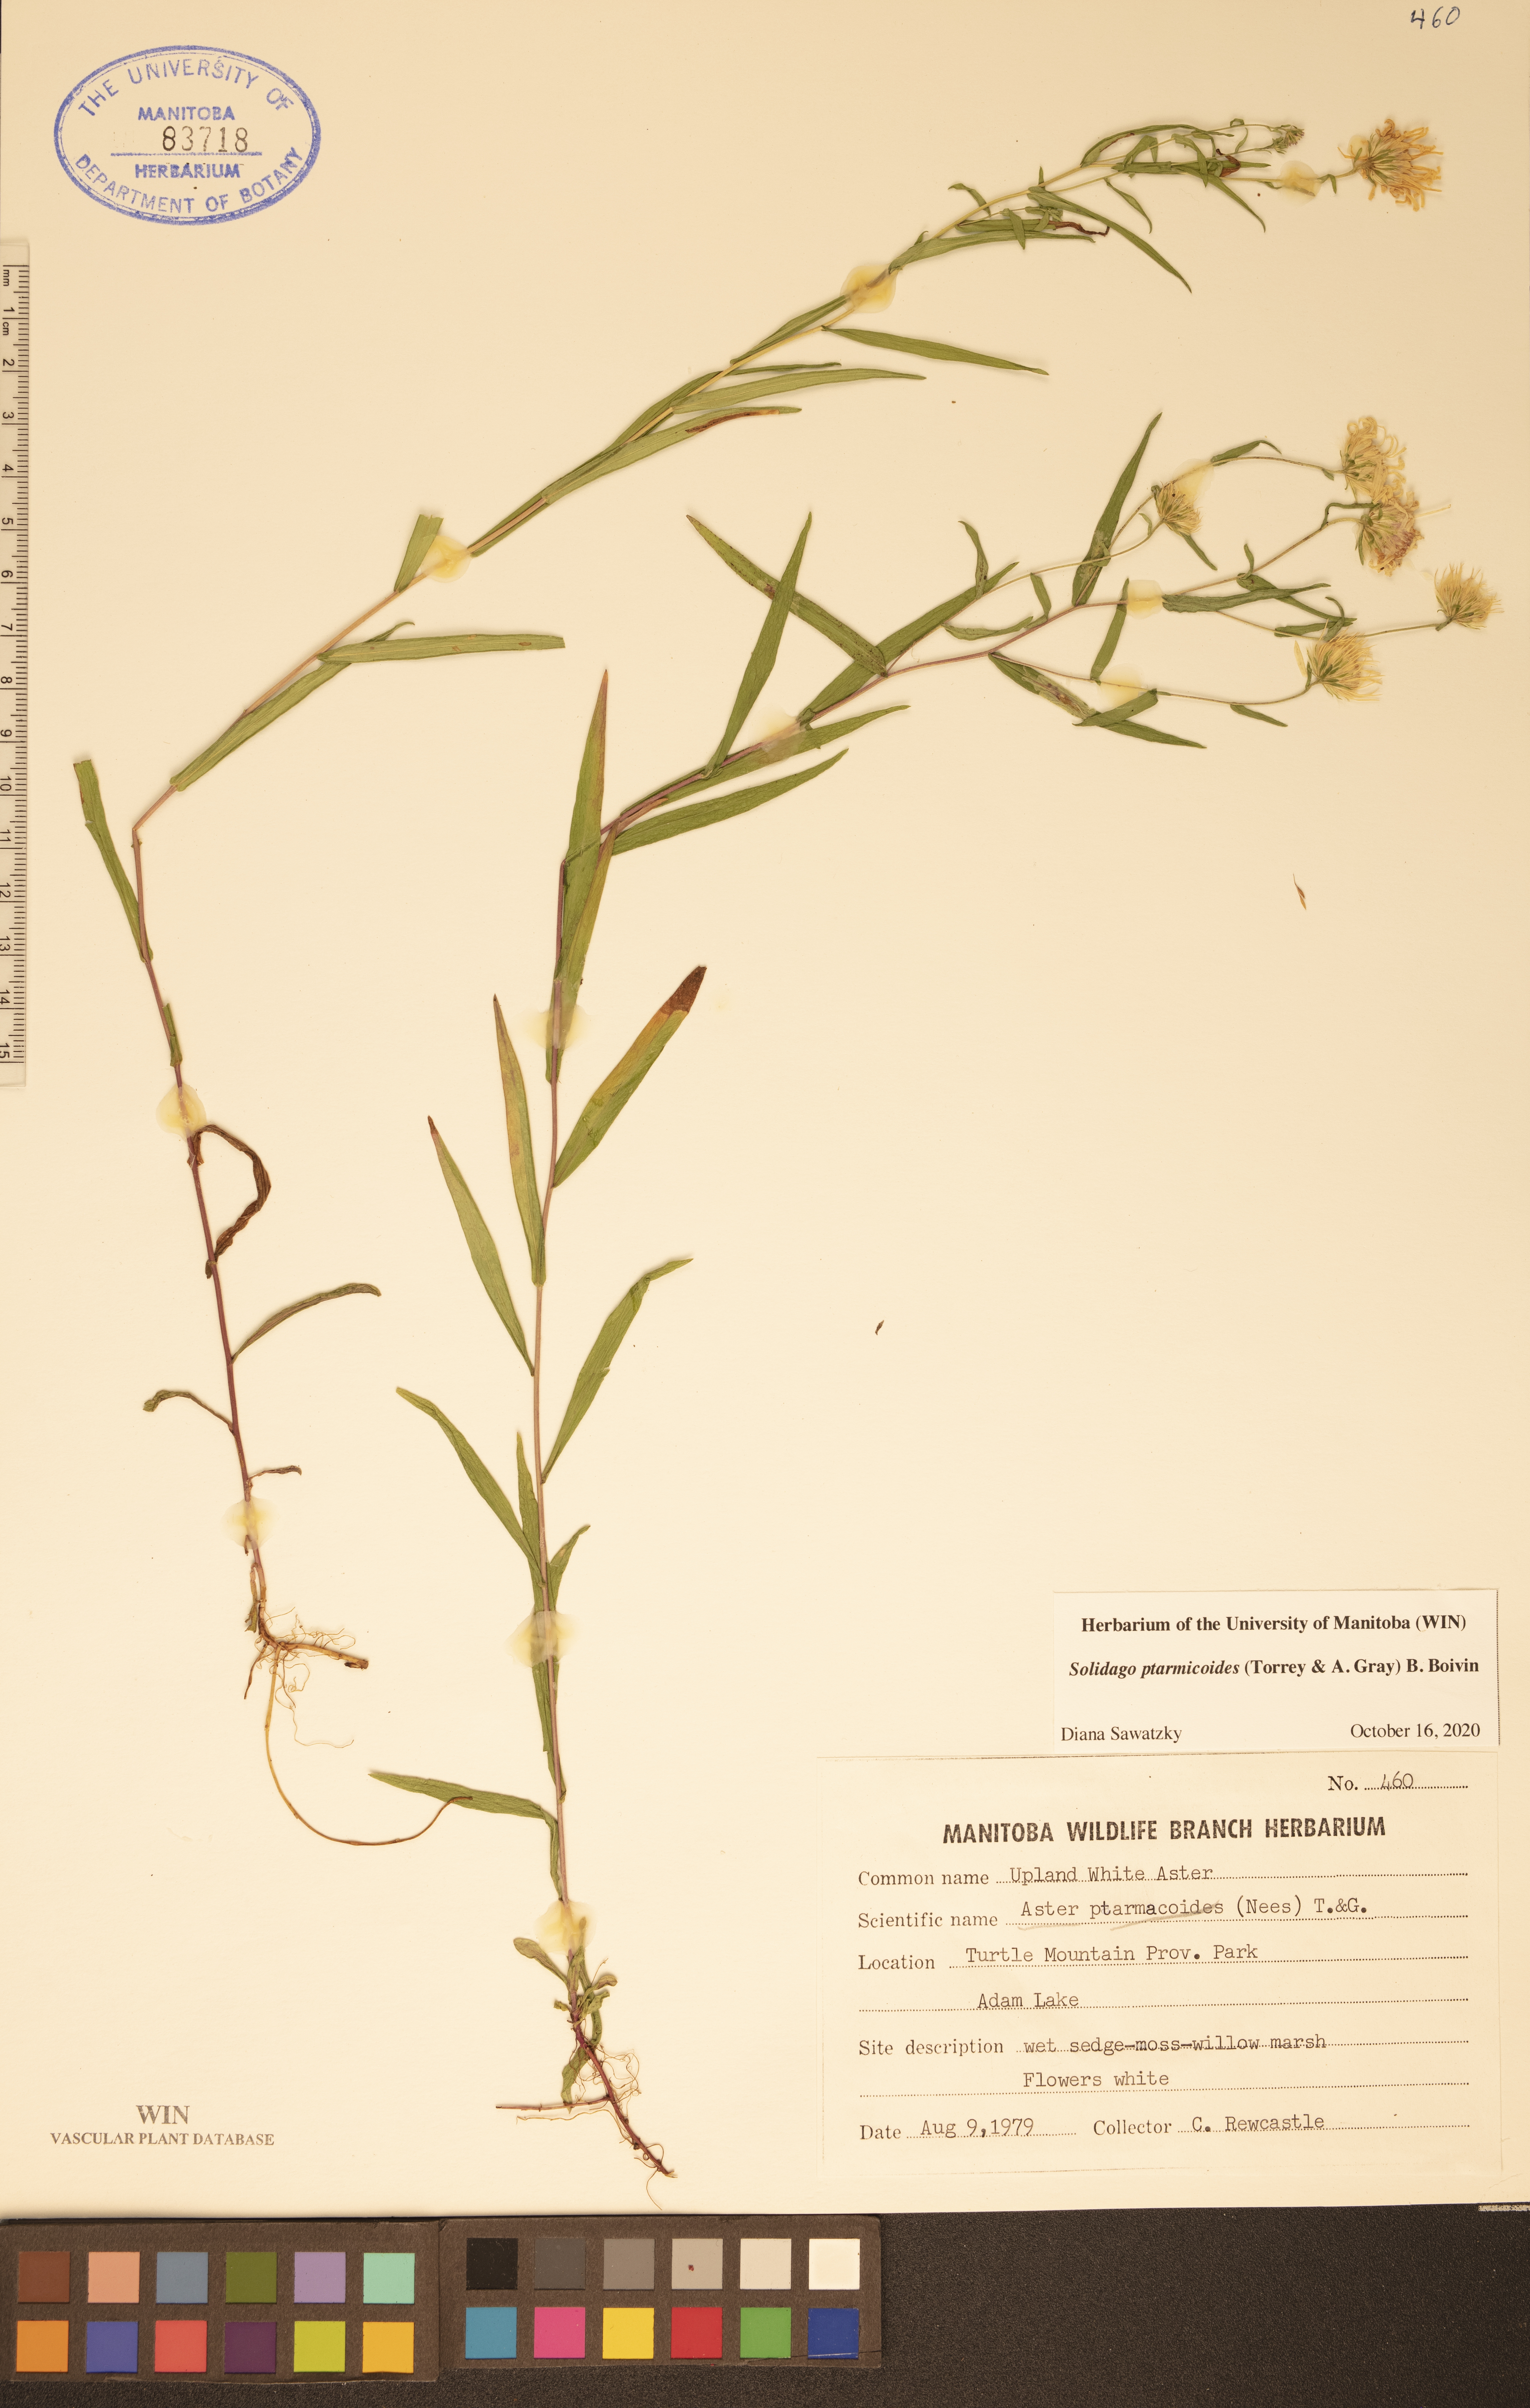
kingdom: Plantae
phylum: Tracheophyta
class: Magnoliopsida
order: Asterales
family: Asteraceae
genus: Solidago
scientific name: Solidago ptarmicoides
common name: White flat-top goldenrod
